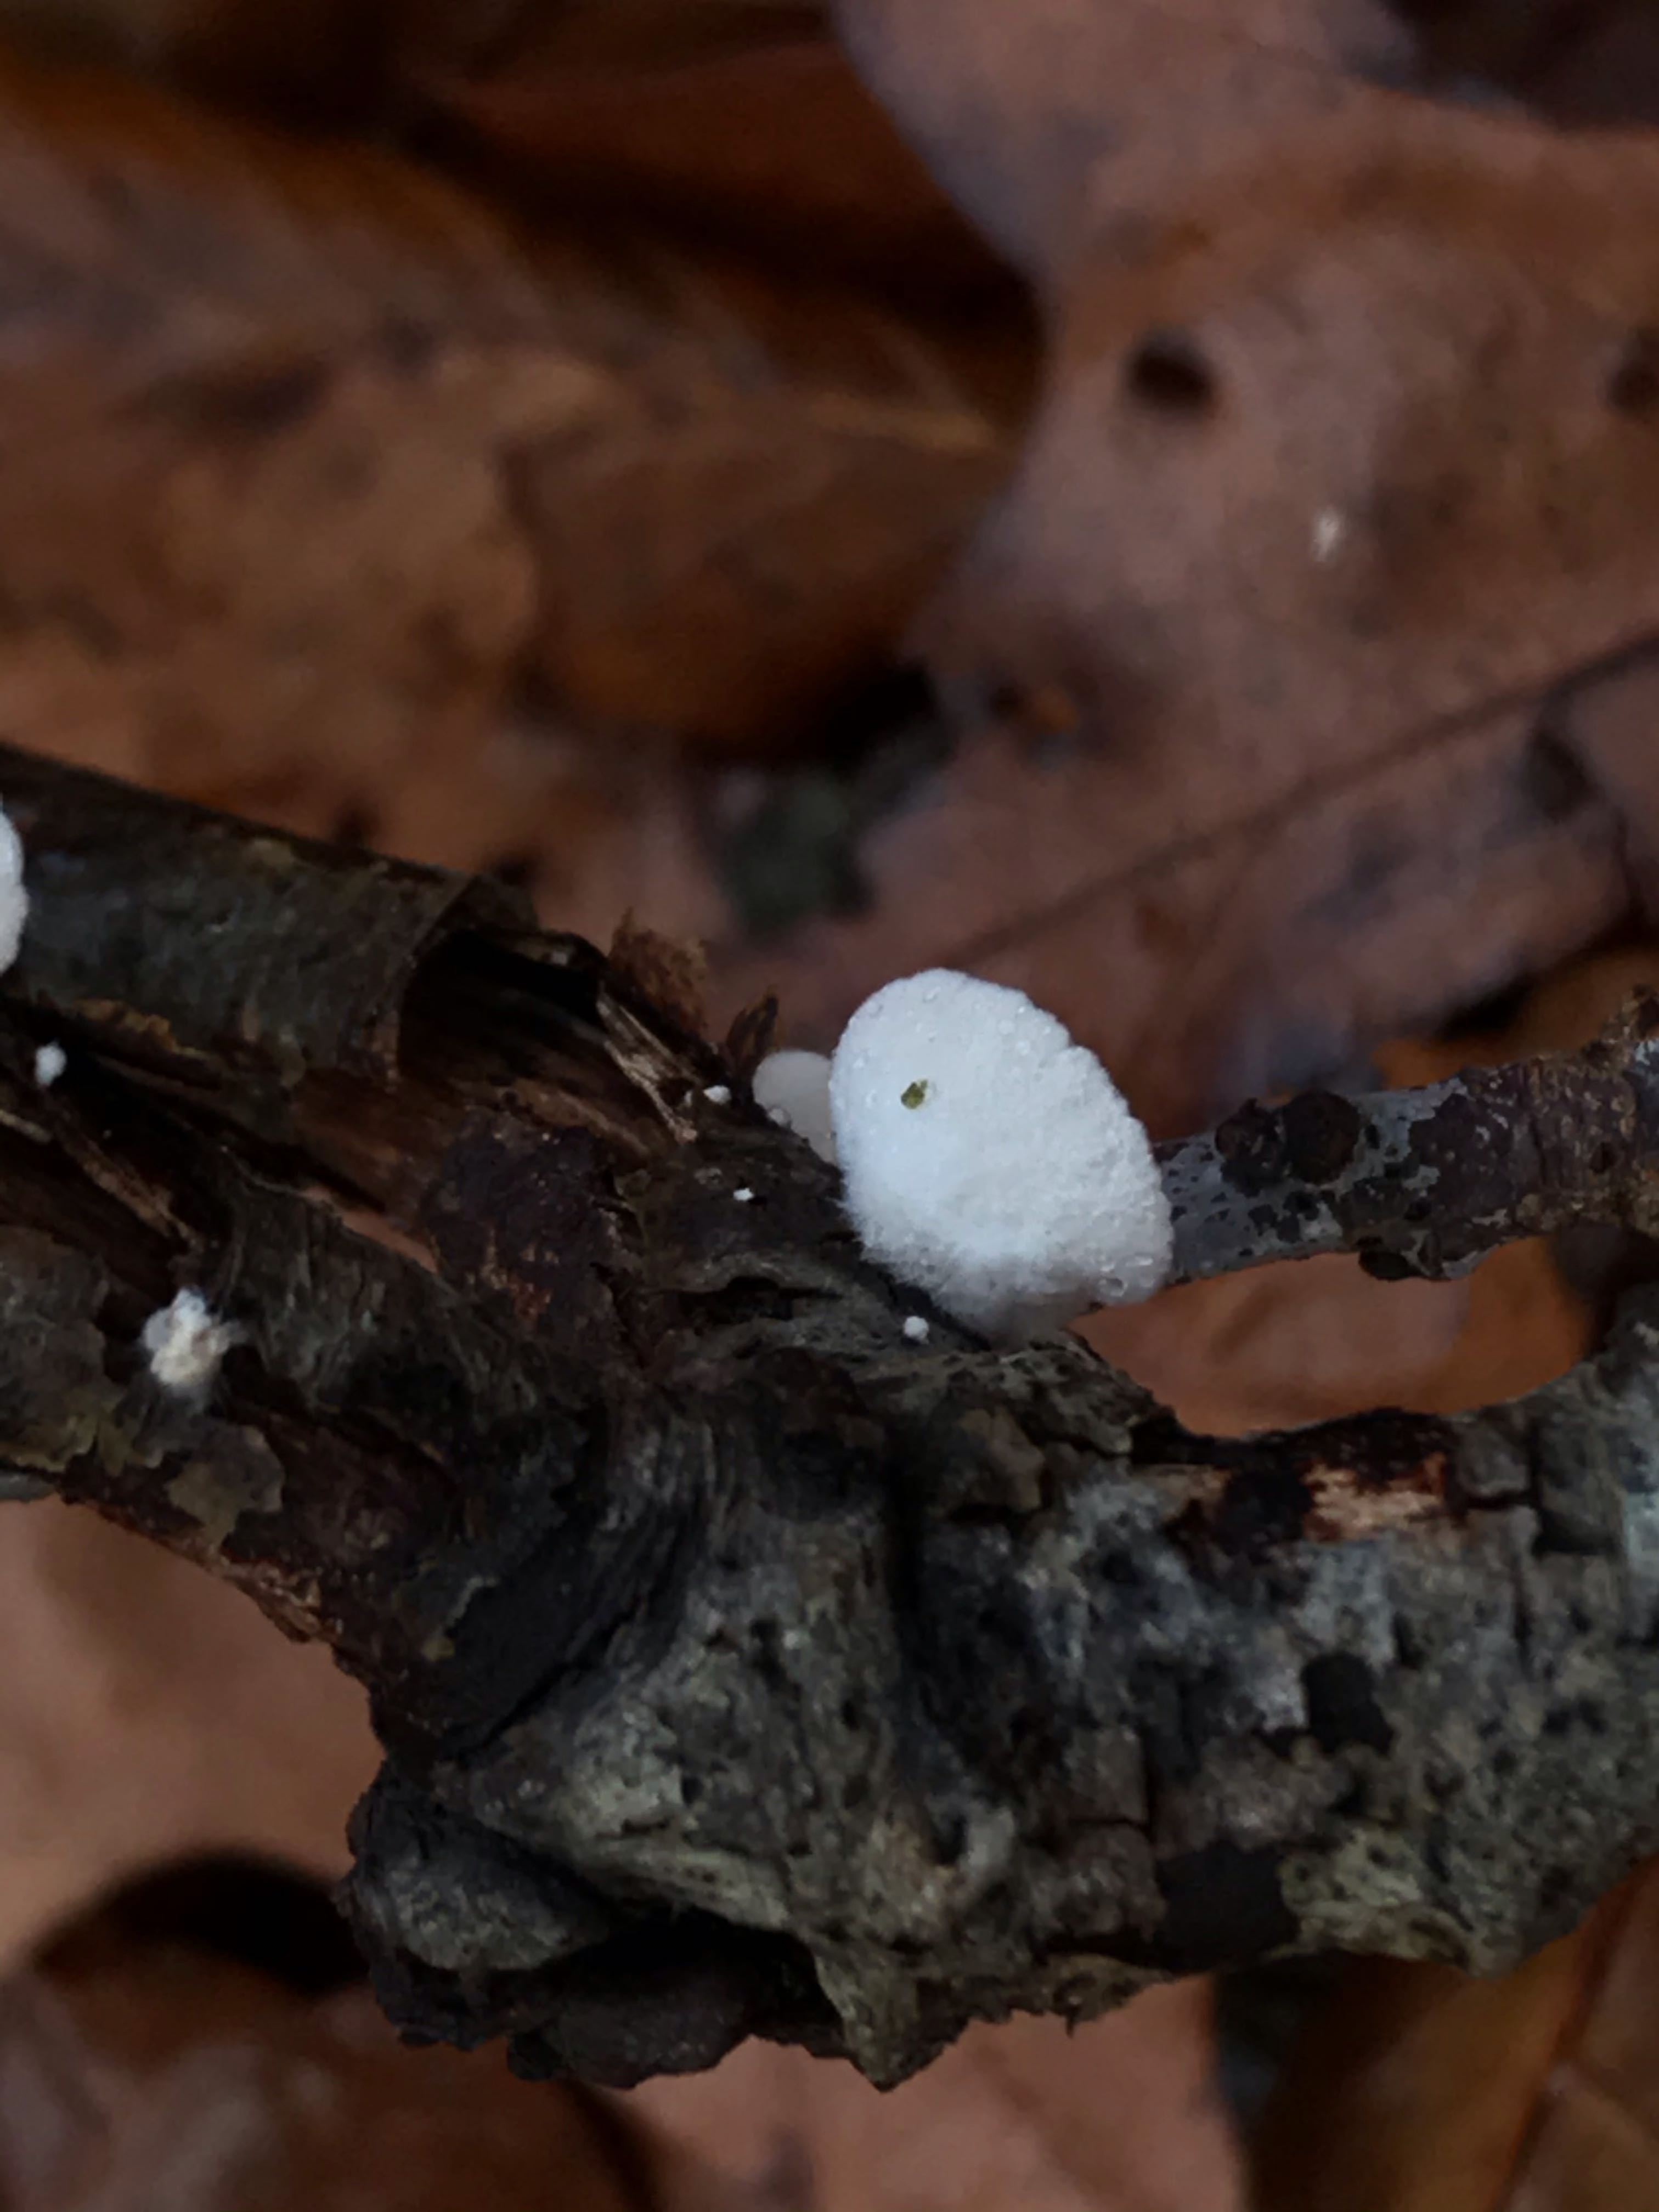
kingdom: Fungi
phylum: Basidiomycota
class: Agaricomycetes
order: Agaricales
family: Crepidotaceae
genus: Crepidotus
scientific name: Crepidotus
